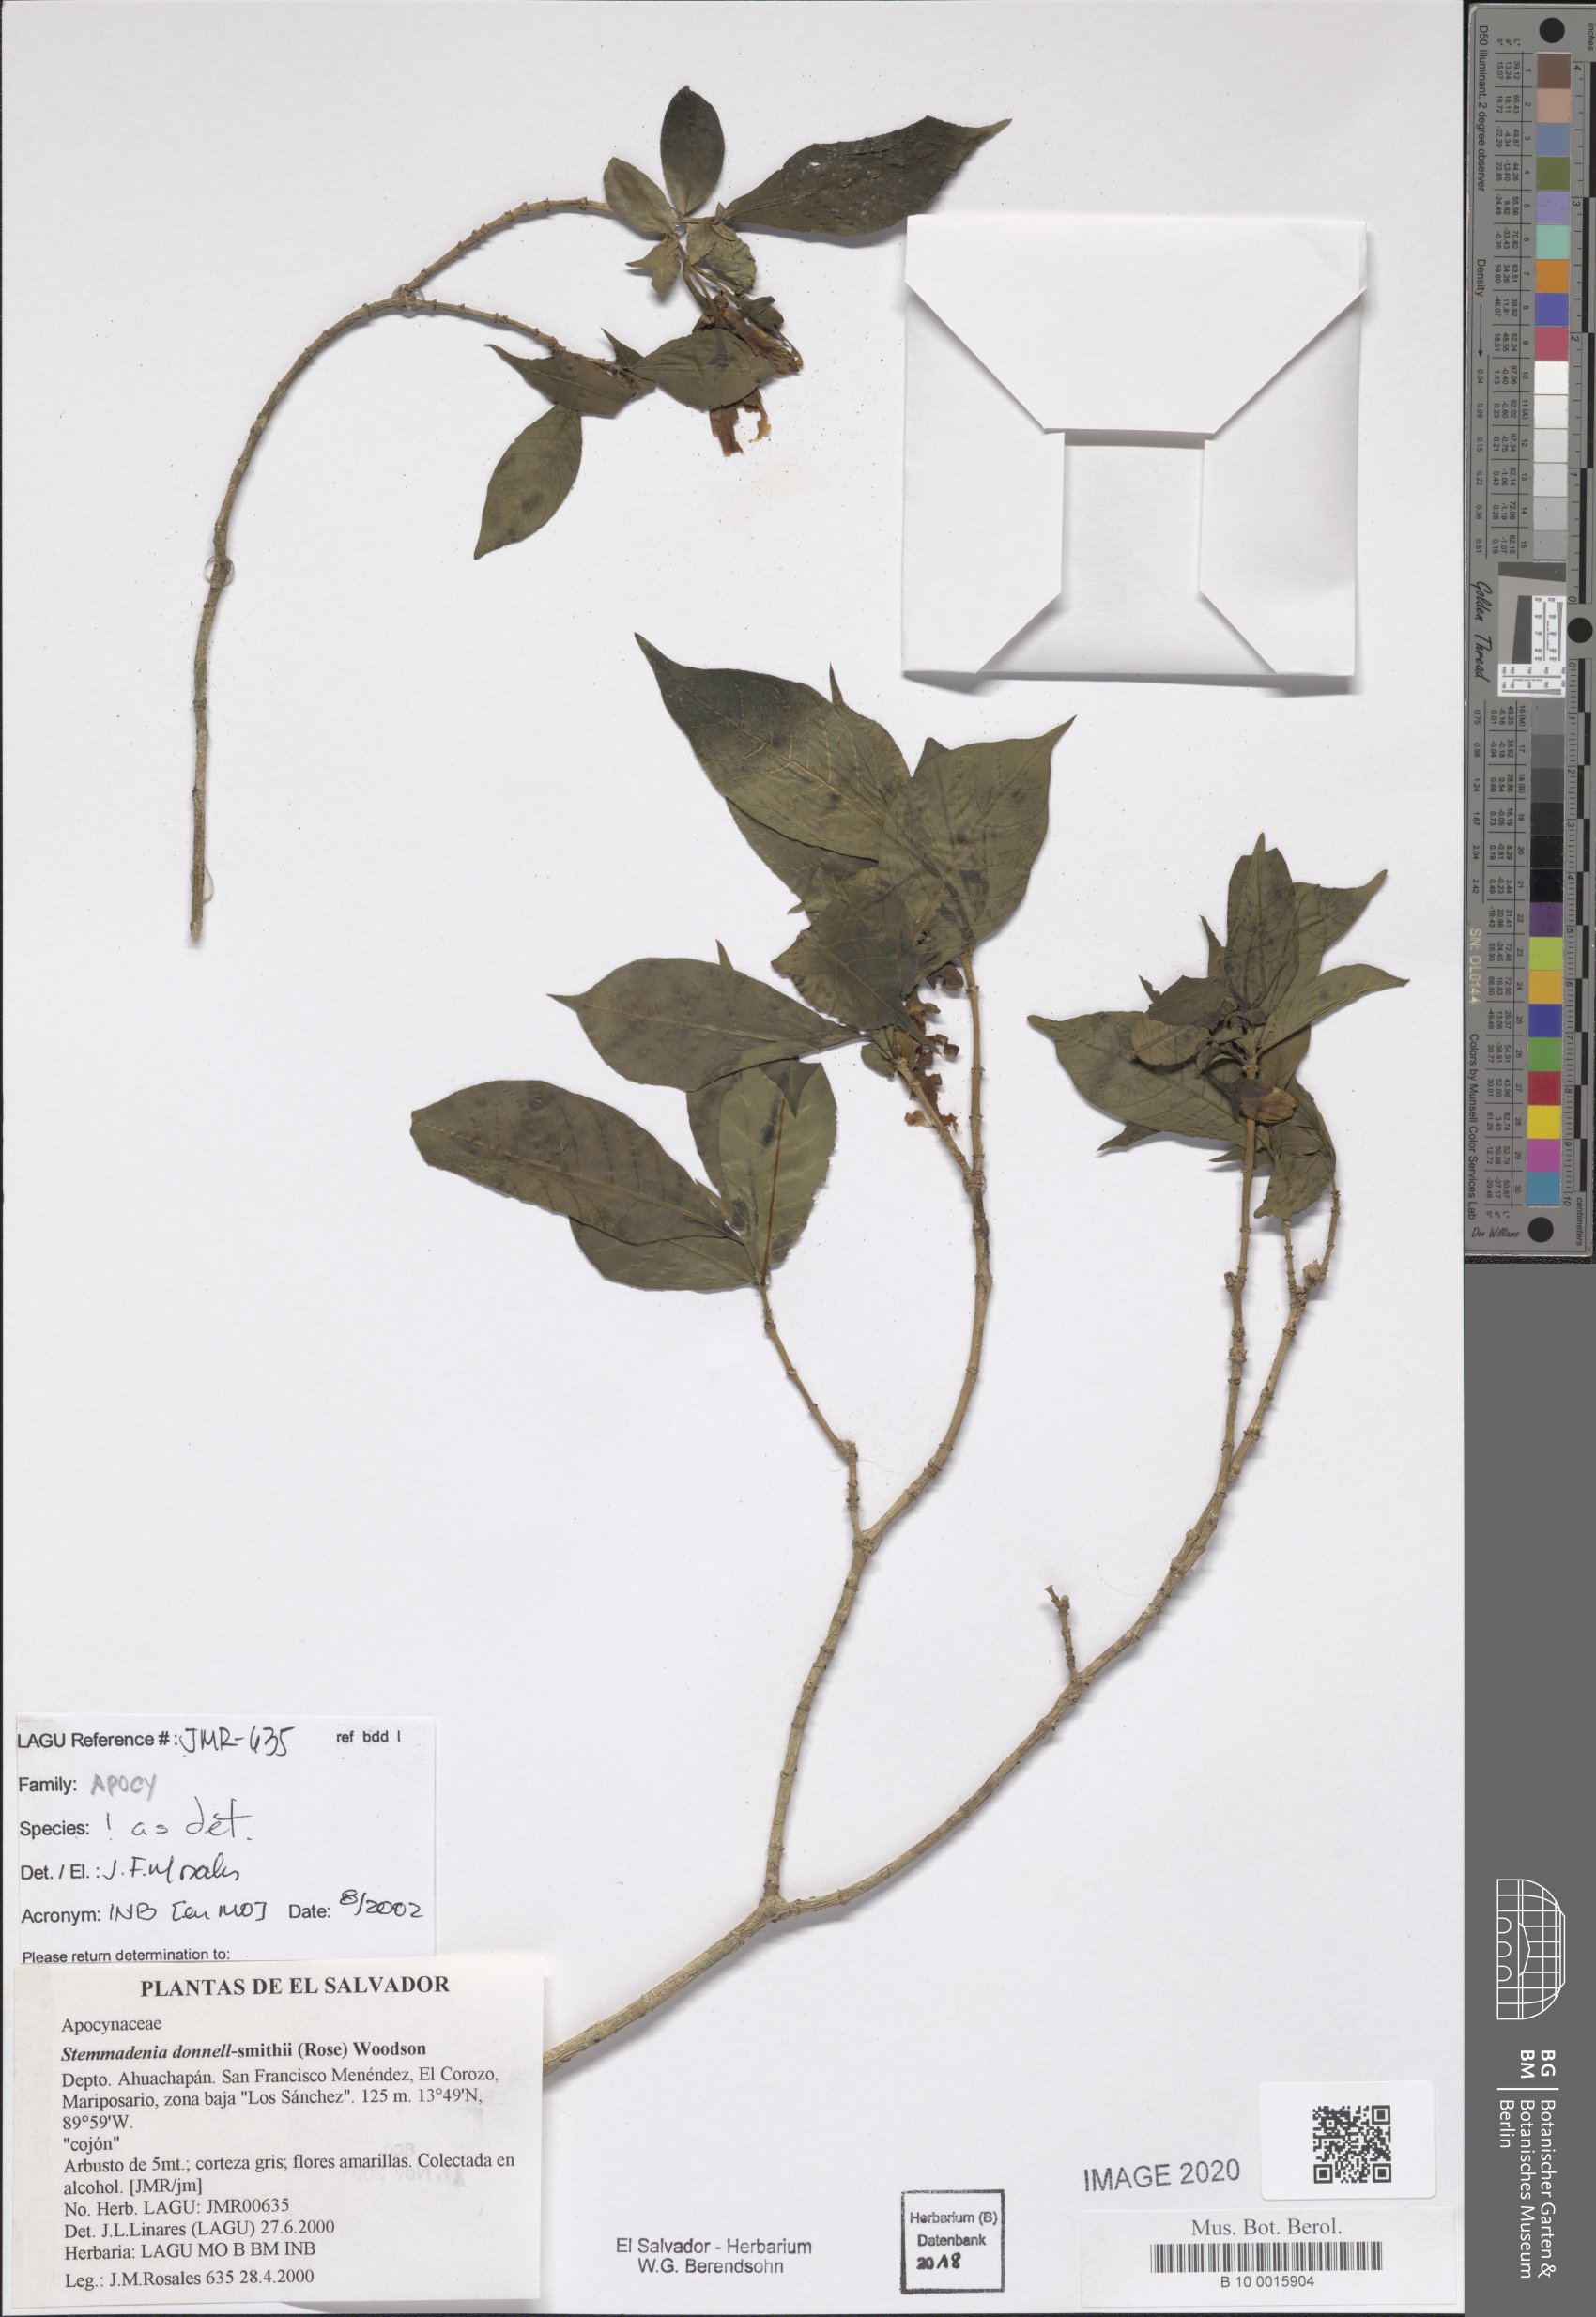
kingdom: Plantae
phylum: Tracheophyta
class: Magnoliopsida
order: Gentianales
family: Apocynaceae
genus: Tabernaemontana
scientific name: Tabernaemontana donnell-smithii
